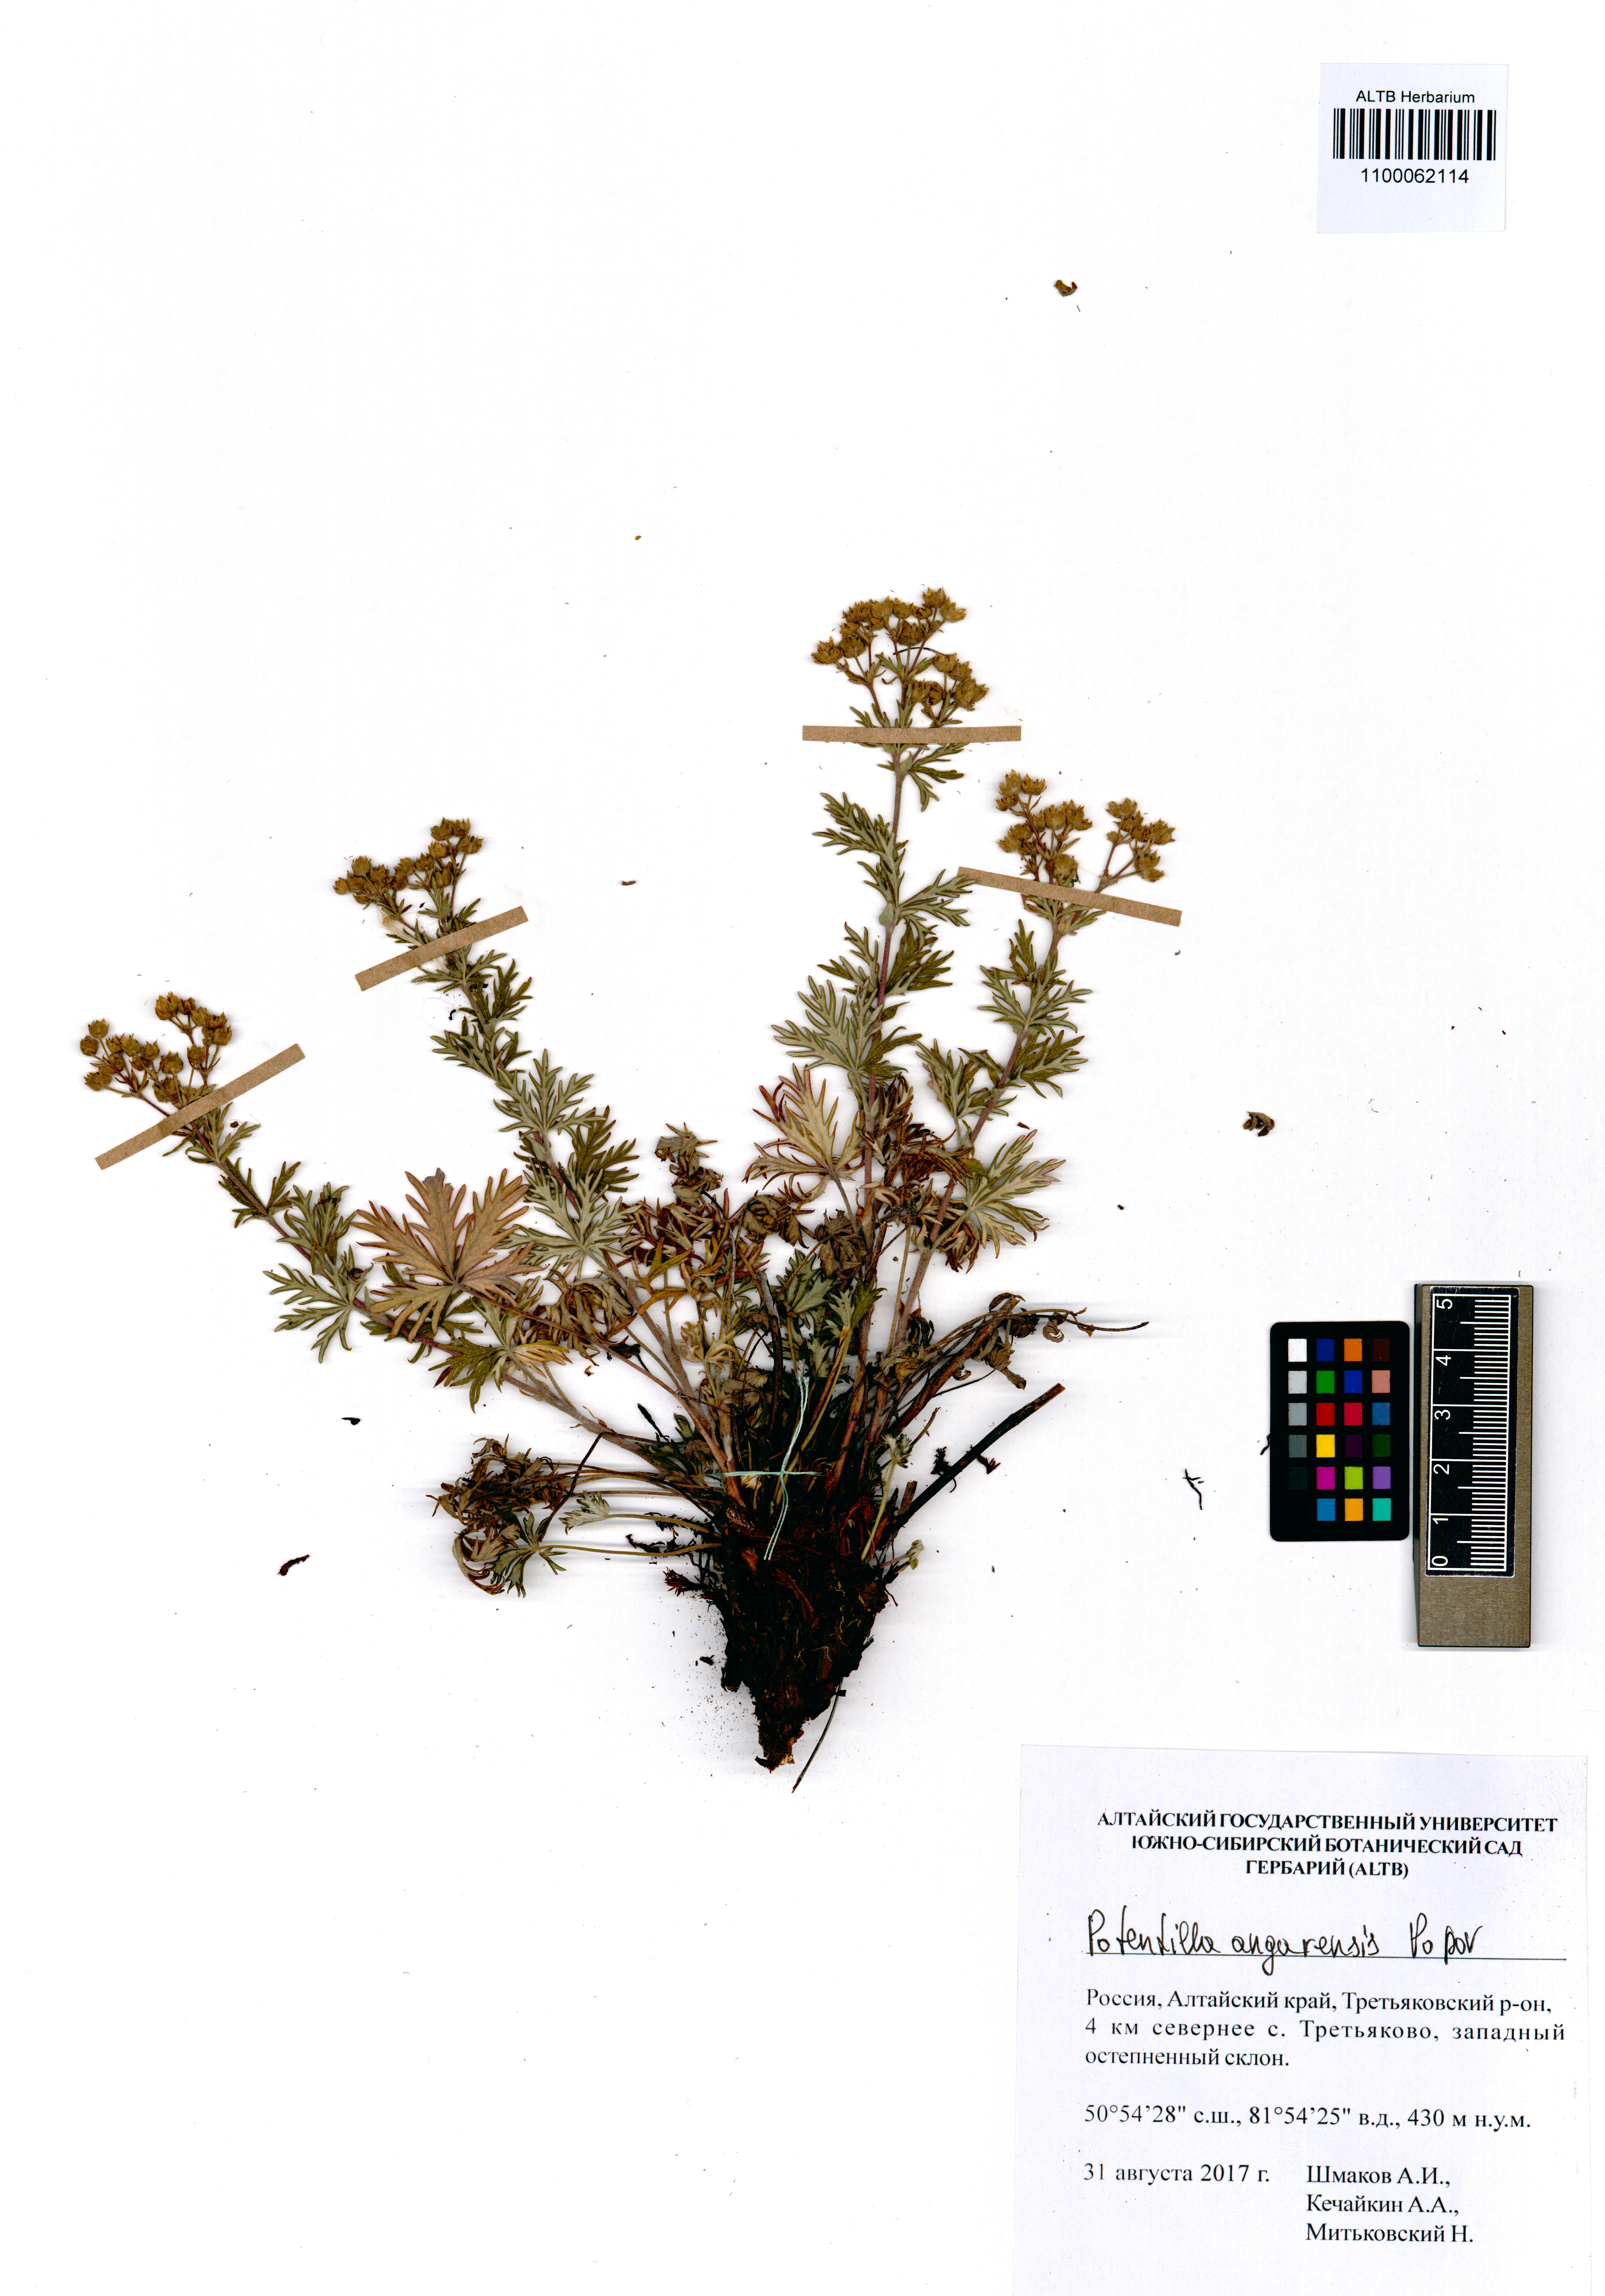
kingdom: Plantae
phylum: Tracheophyta
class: Magnoliopsida
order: Rosales
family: Rosaceae
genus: Potentilla
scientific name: Potentilla angarensis
